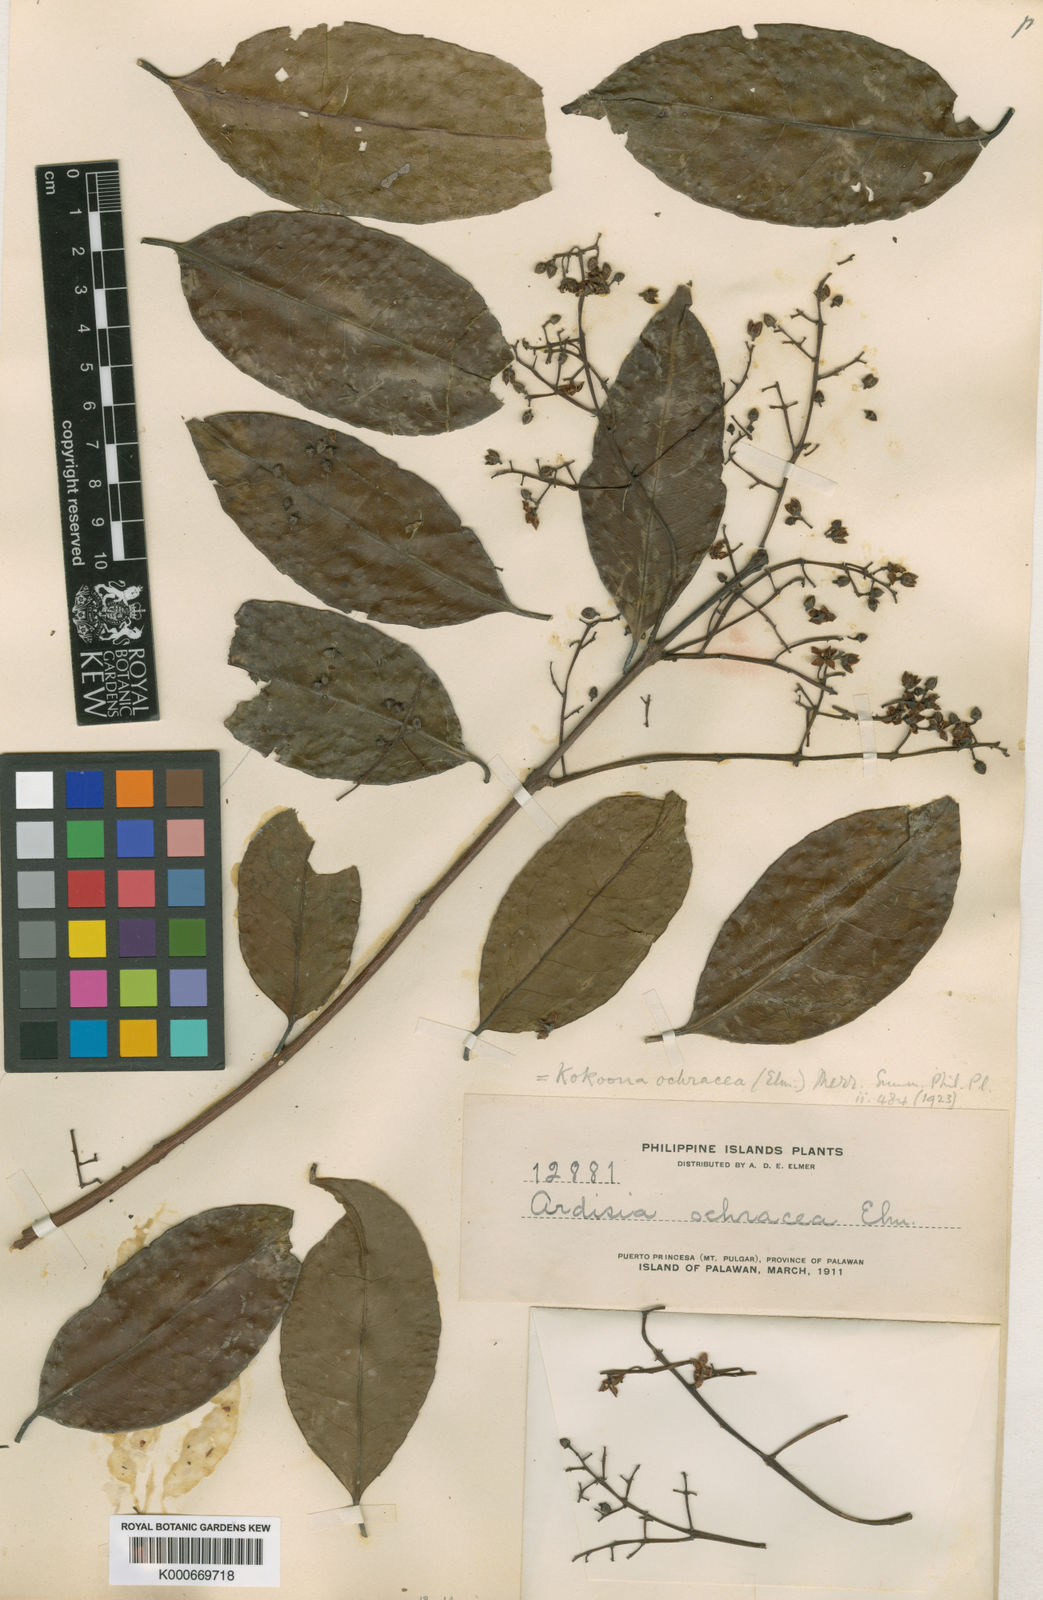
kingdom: Plantae
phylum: Tracheophyta
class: Magnoliopsida
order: Celastrales
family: Celastraceae
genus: Kokoona
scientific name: Kokoona ochracea
